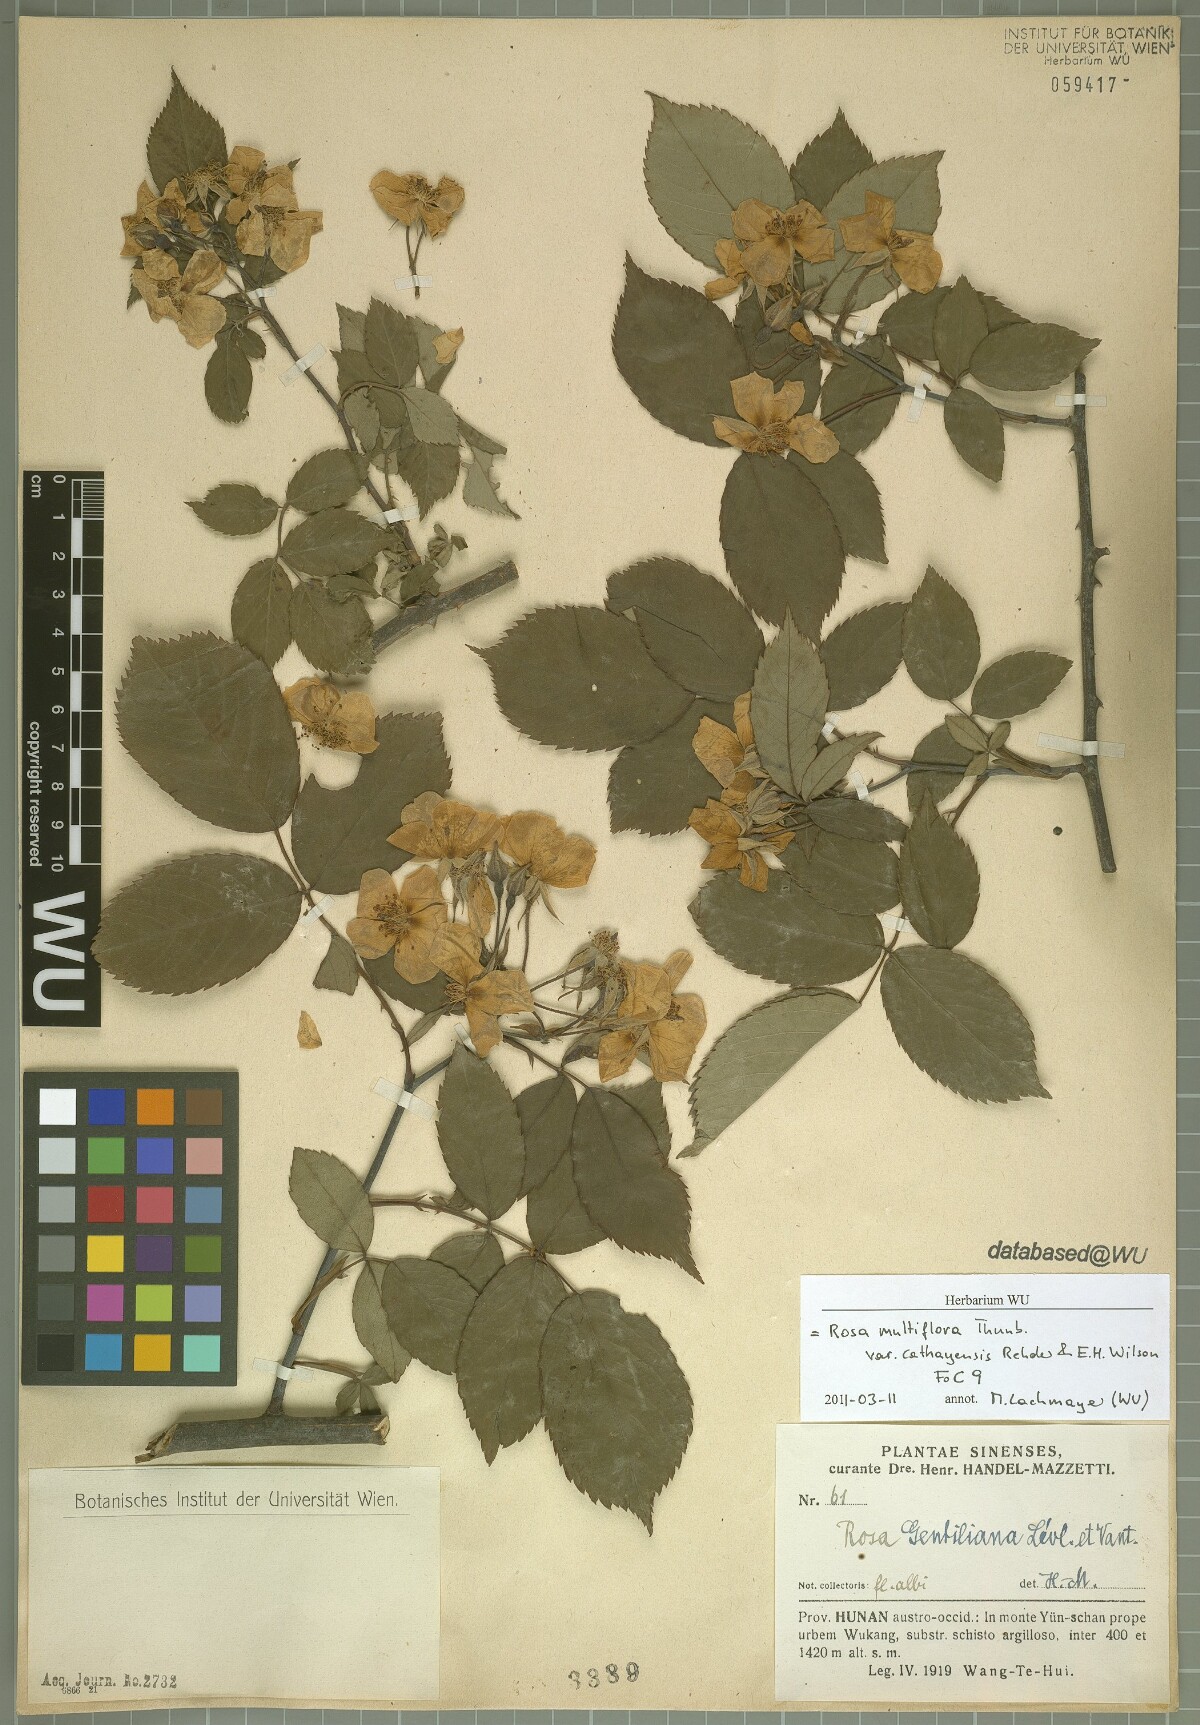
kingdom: Plantae
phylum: Tracheophyta
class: Magnoliopsida
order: Rosales
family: Rosaceae
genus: Rosa
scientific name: Rosa multiflora
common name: Multiflora rose
